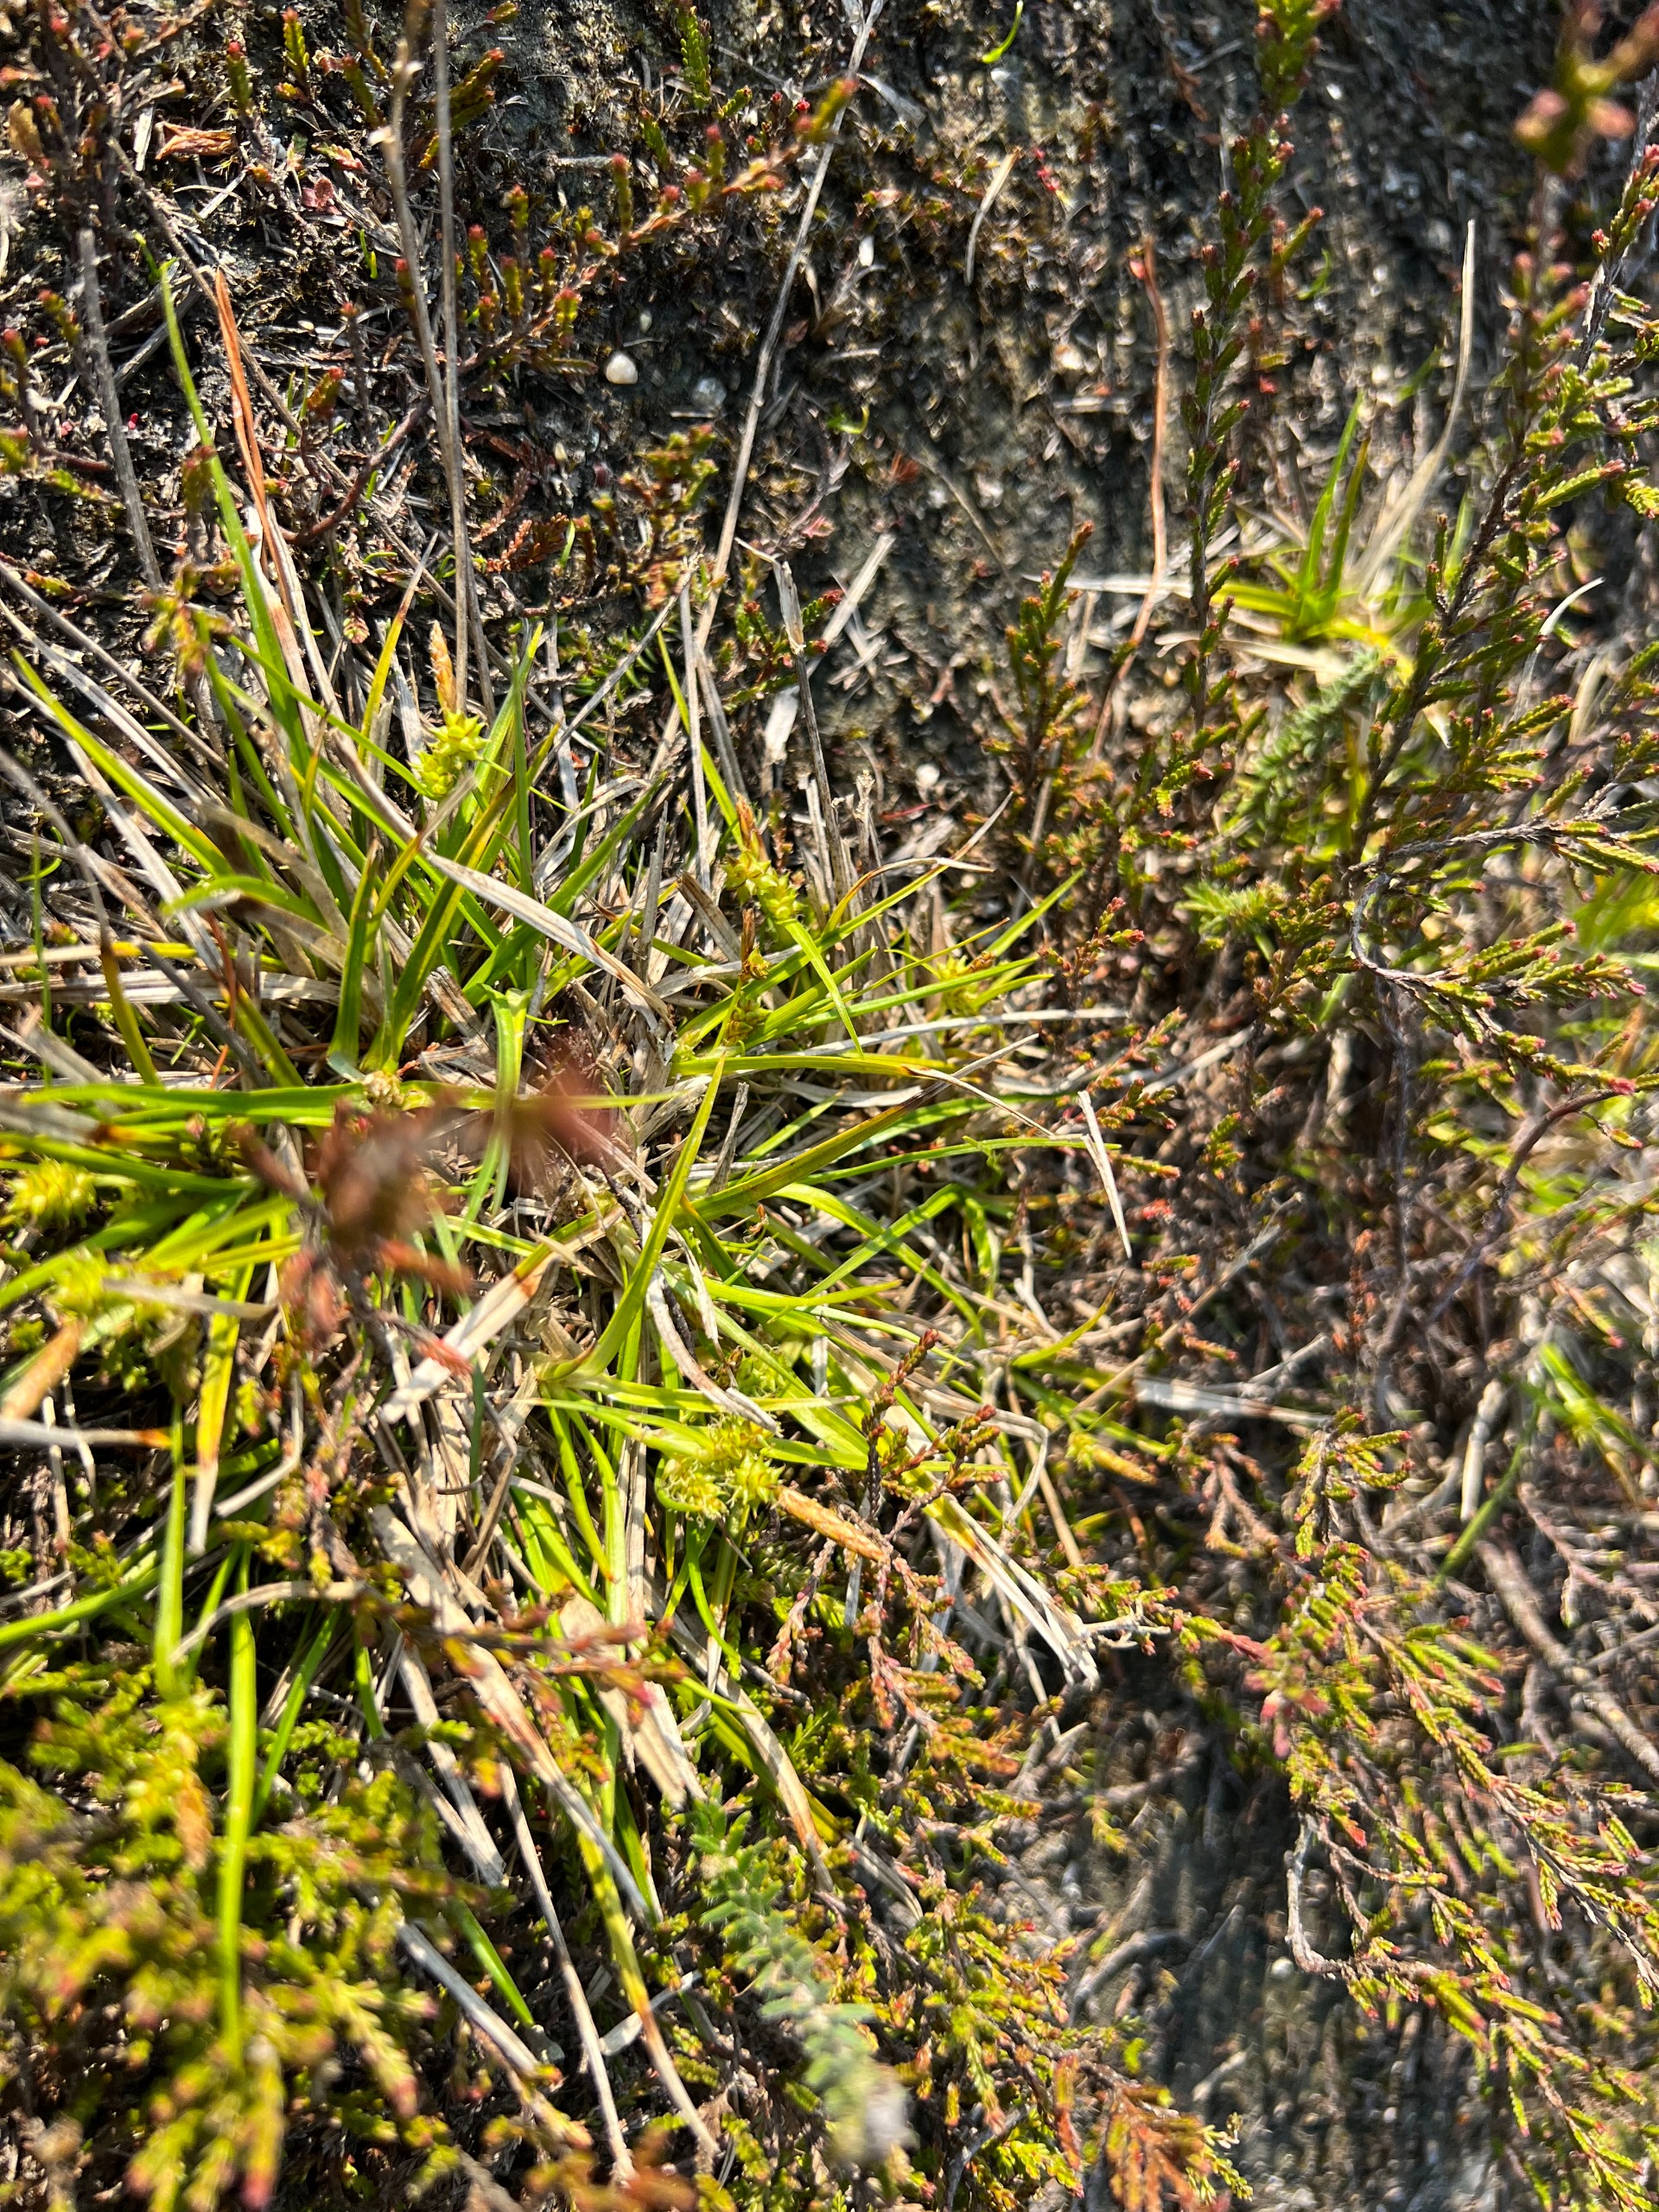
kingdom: Plantae
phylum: Tracheophyta
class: Liliopsida
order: Poales
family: Cyperaceae
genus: Carex
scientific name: Carex oederi
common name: Dværg-star
